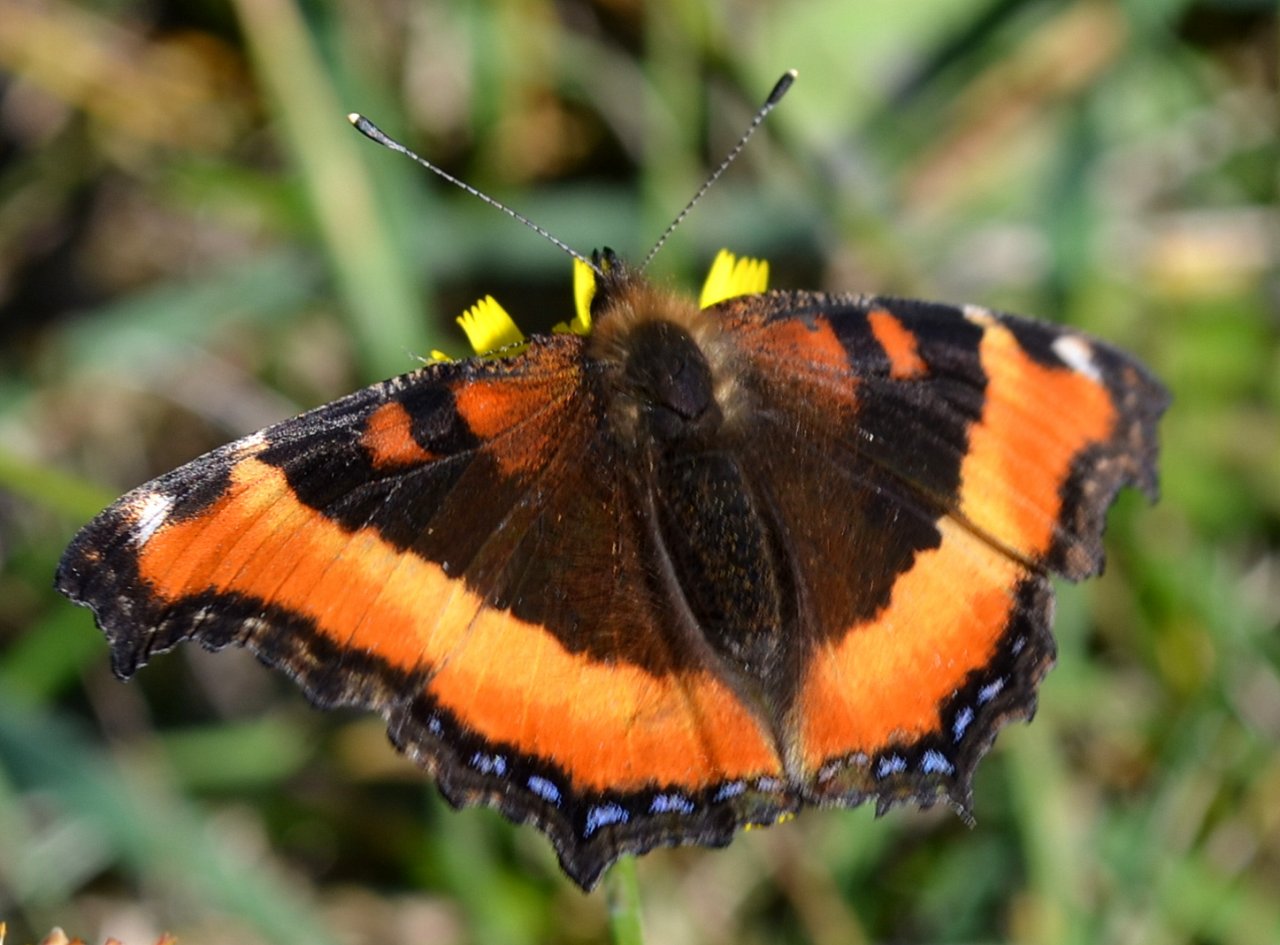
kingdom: Animalia
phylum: Arthropoda
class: Insecta
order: Lepidoptera
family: Nymphalidae
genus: Aglais
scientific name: Aglais milberti
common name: Milbert's Tortoiseshell
